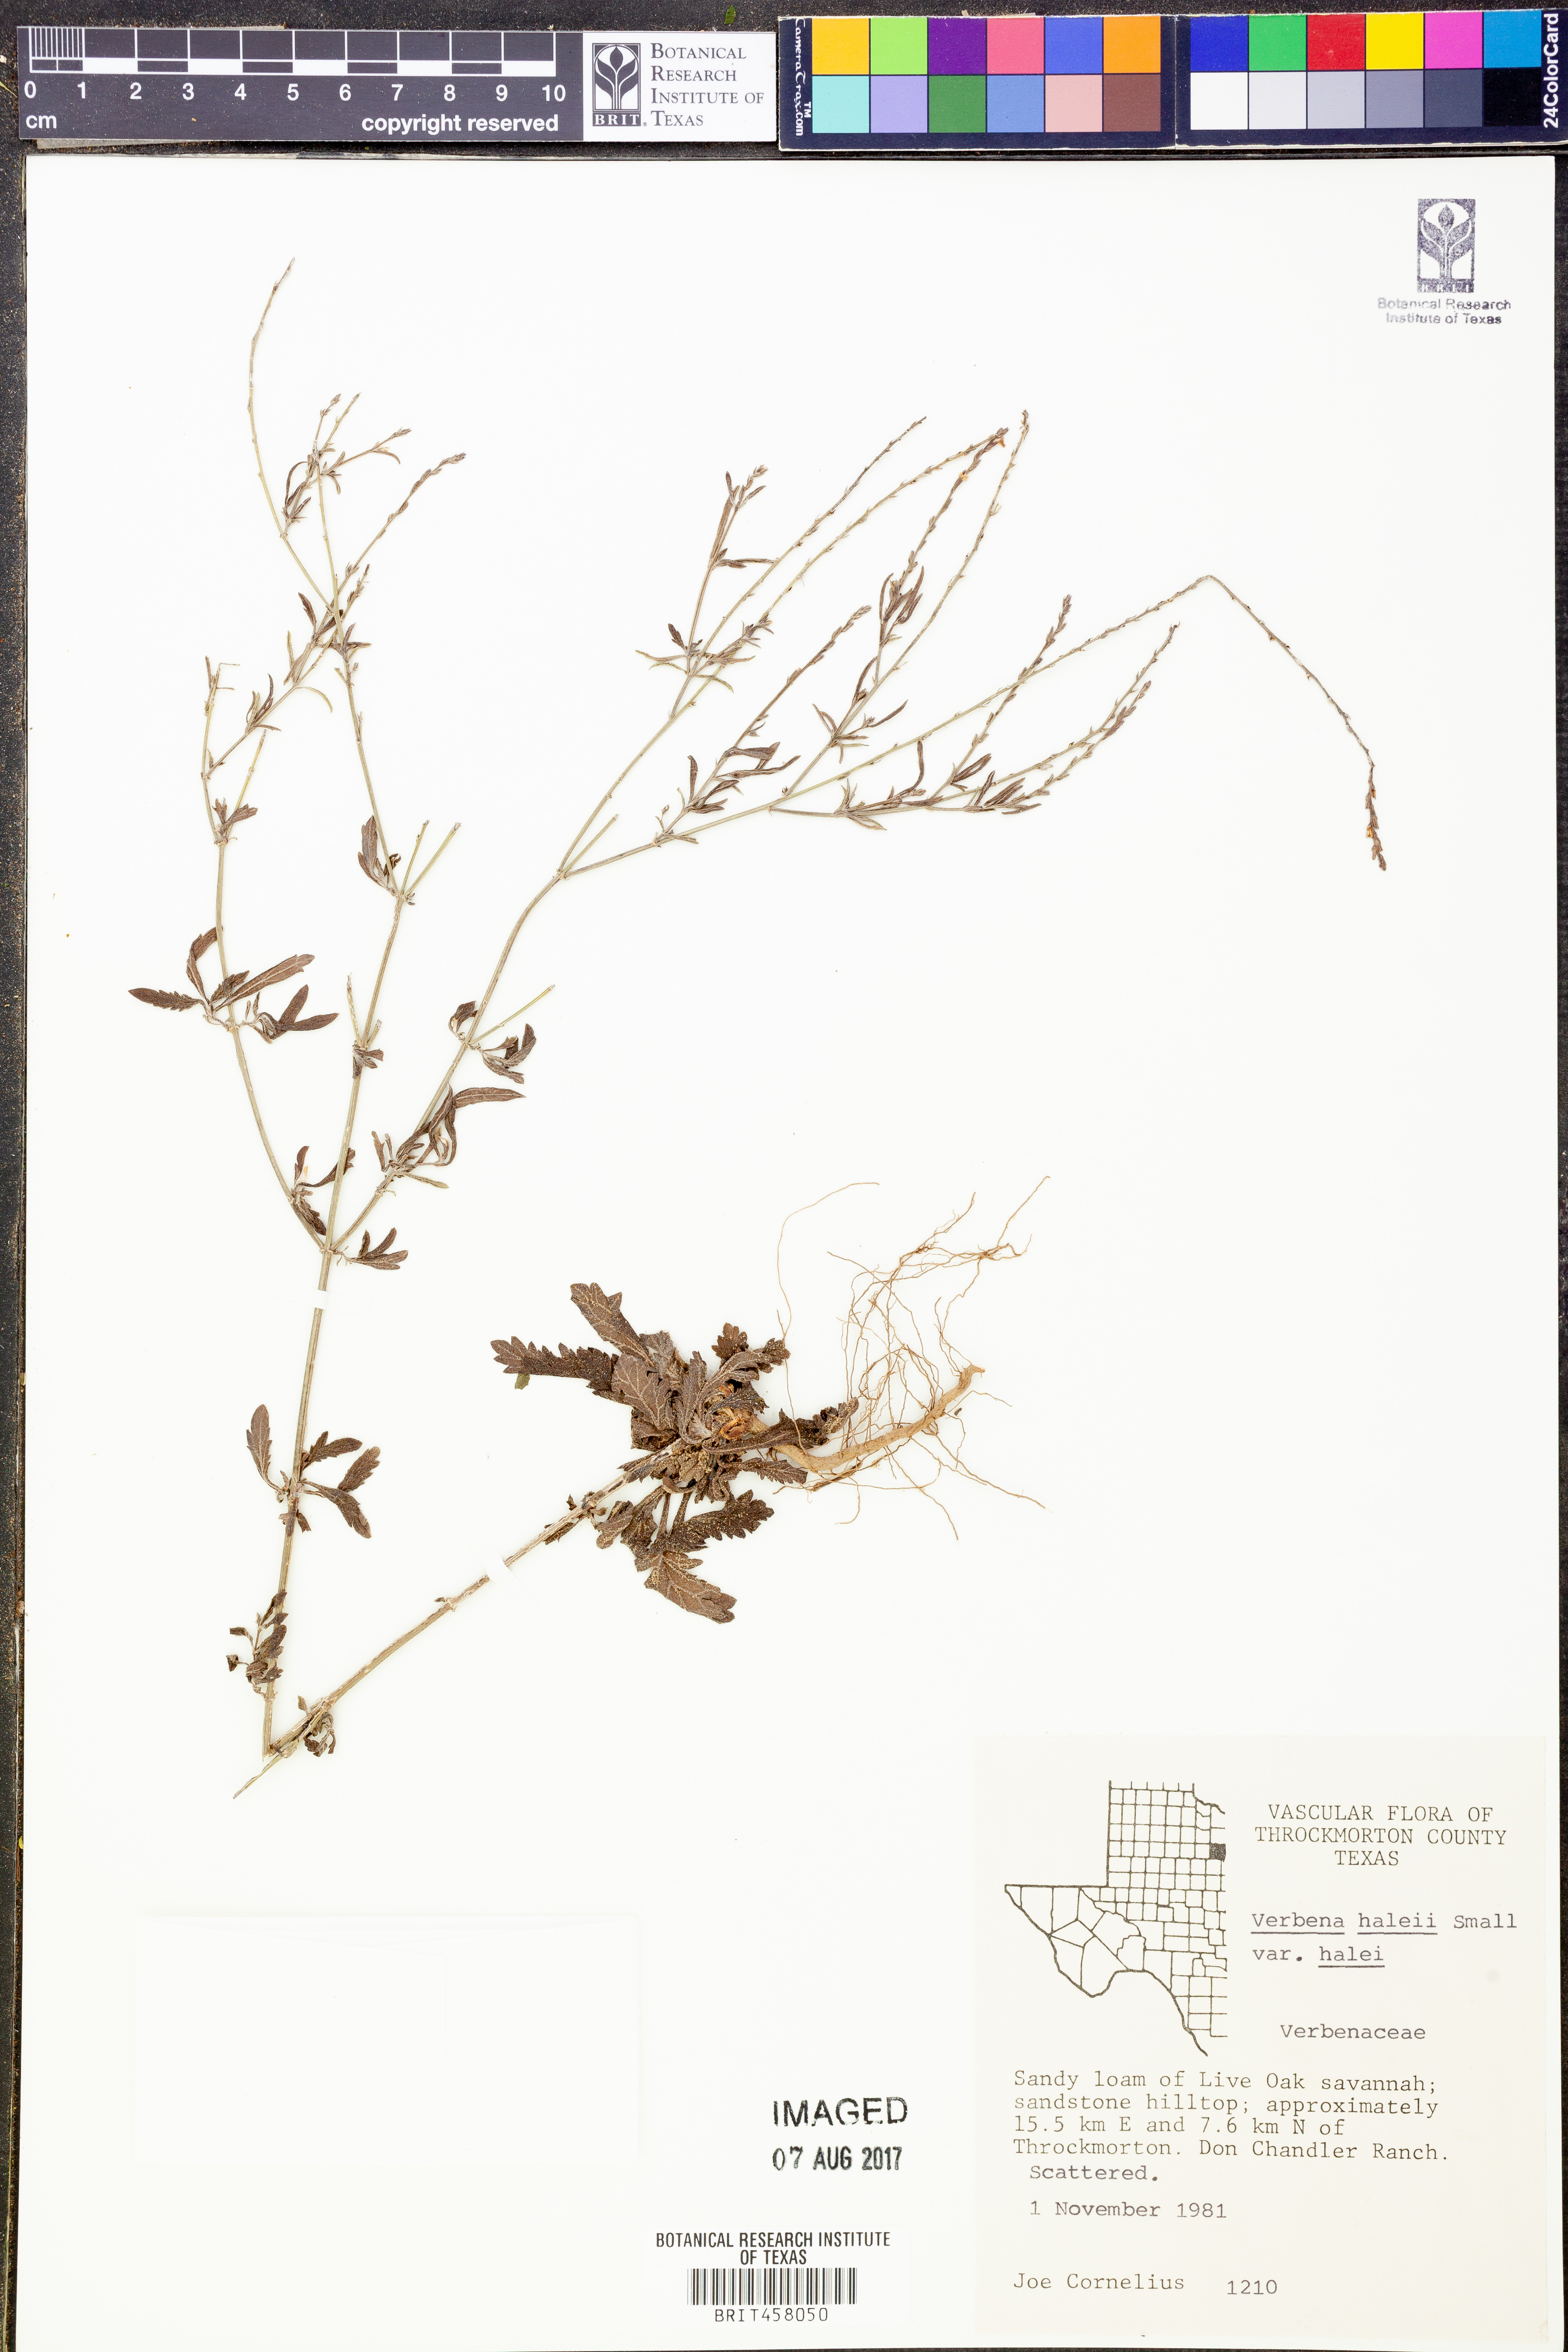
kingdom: Plantae
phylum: Tracheophyta
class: Magnoliopsida
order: Lamiales
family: Verbenaceae
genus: Verbena
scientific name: Verbena halei
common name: Texas vervain
